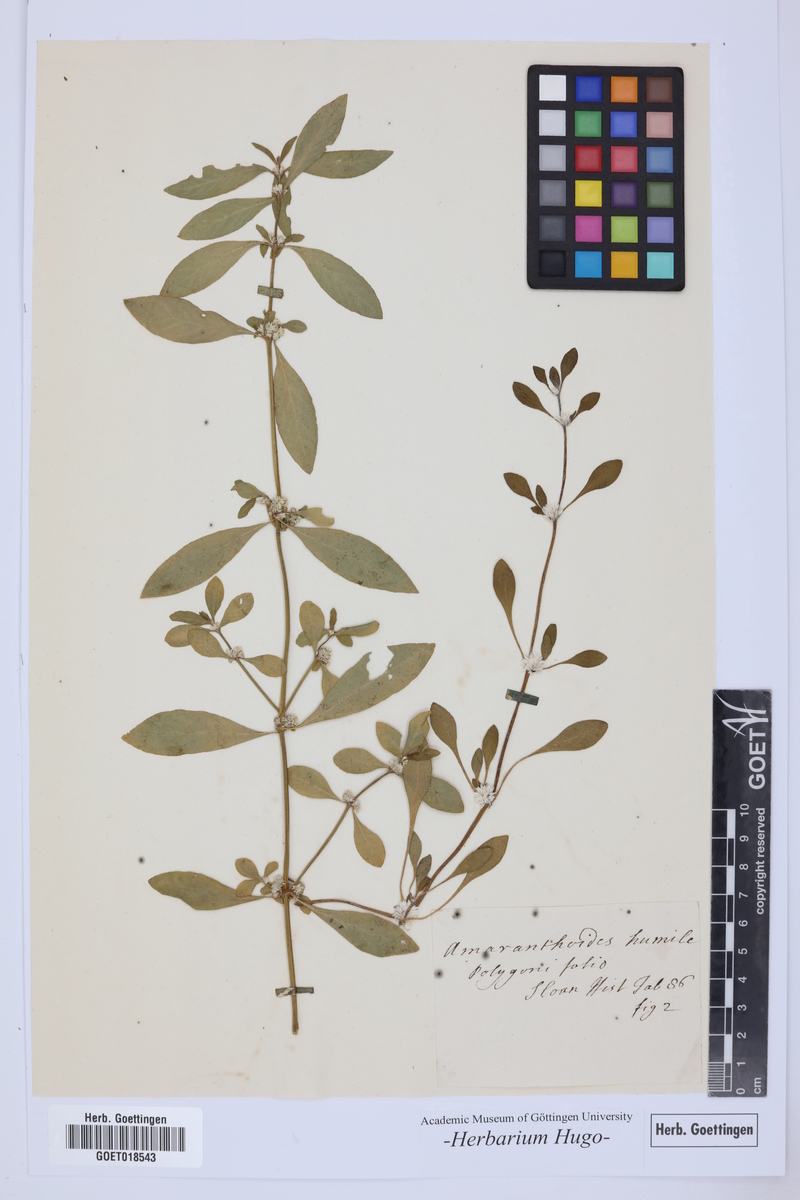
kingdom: Plantae
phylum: Tracheophyta
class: Magnoliopsida
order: Caryophyllales
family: Amaranthaceae
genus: Alternanthera
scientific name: Alternanthera sessilis
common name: Sessile joyweed
